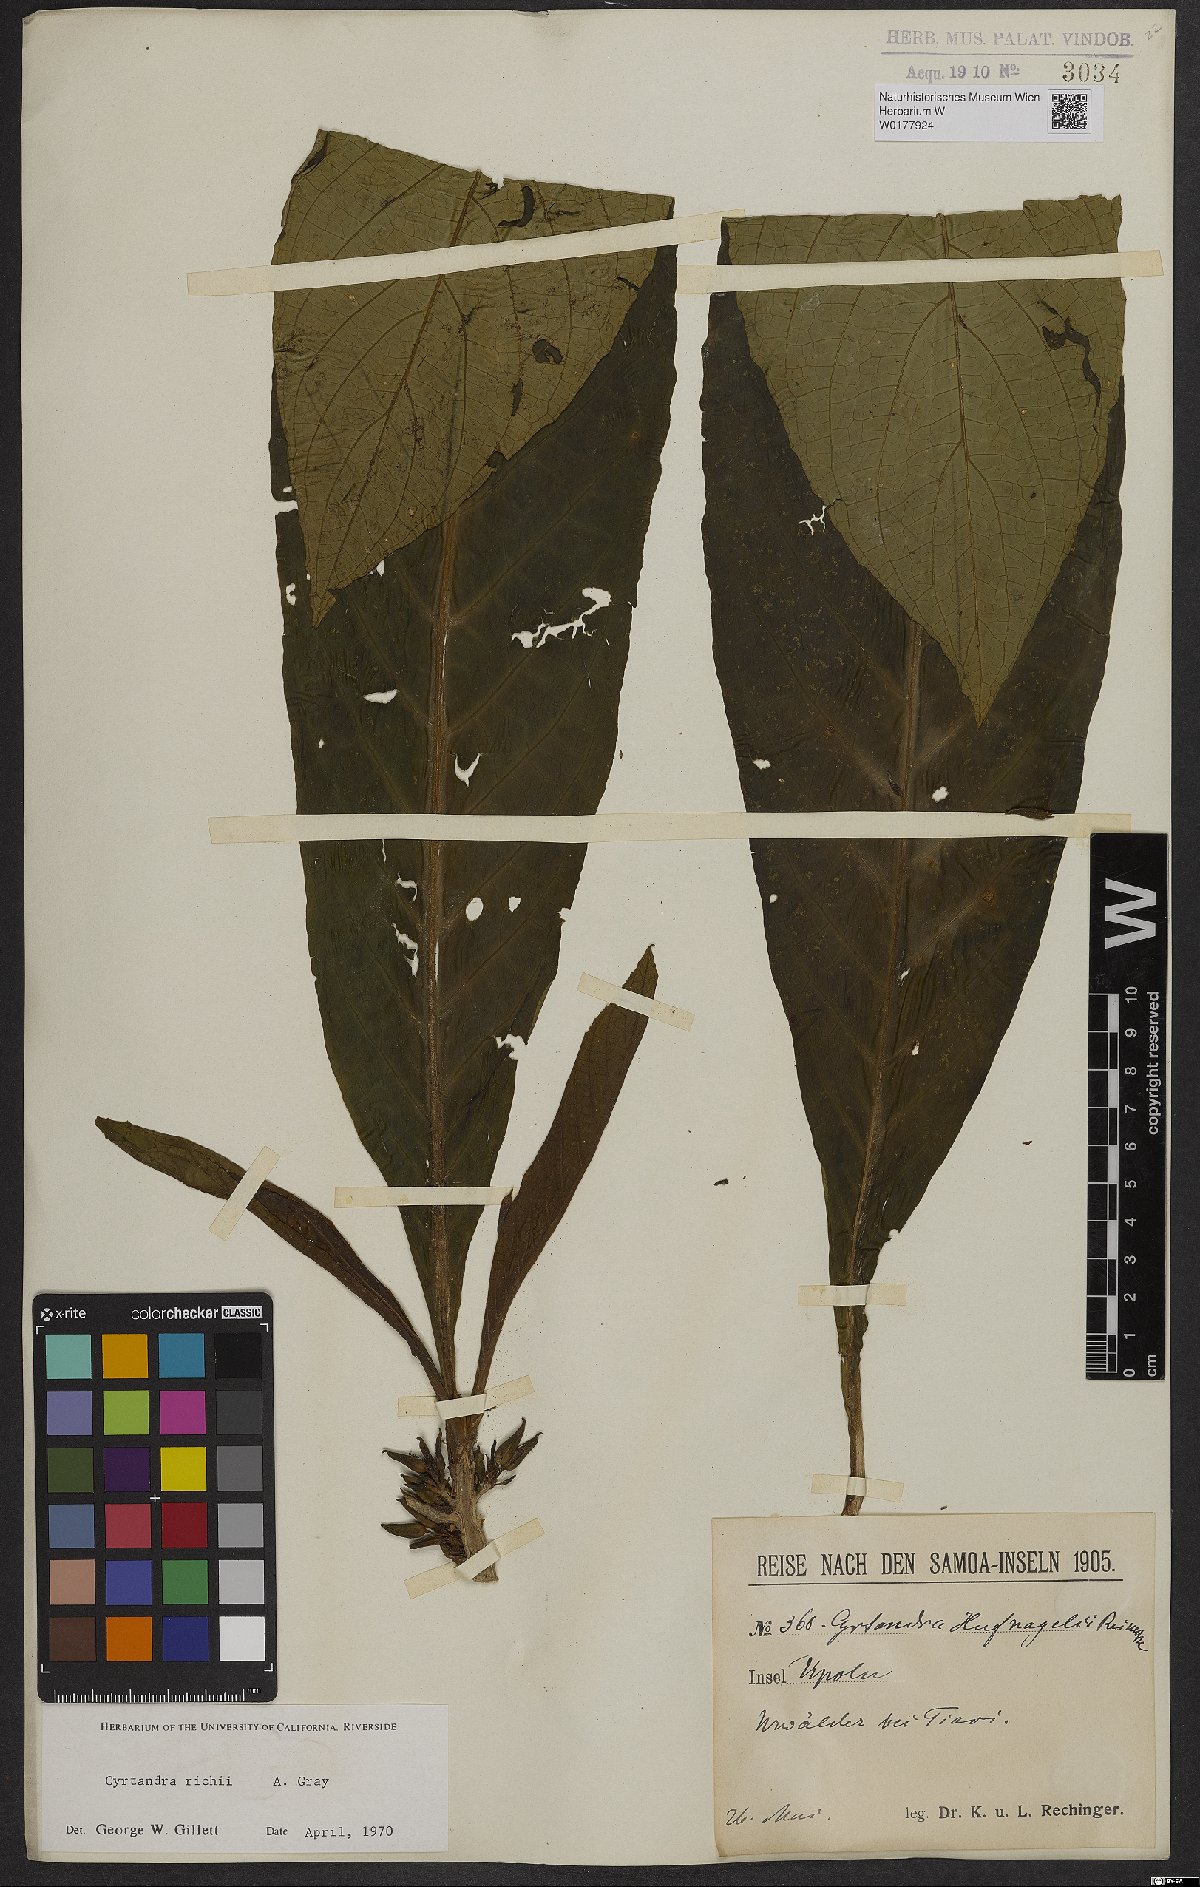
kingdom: Plantae
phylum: Tracheophyta
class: Magnoliopsida
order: Lamiales
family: Gesneriaceae
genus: Cyrtandra
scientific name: Cyrtandra richii
